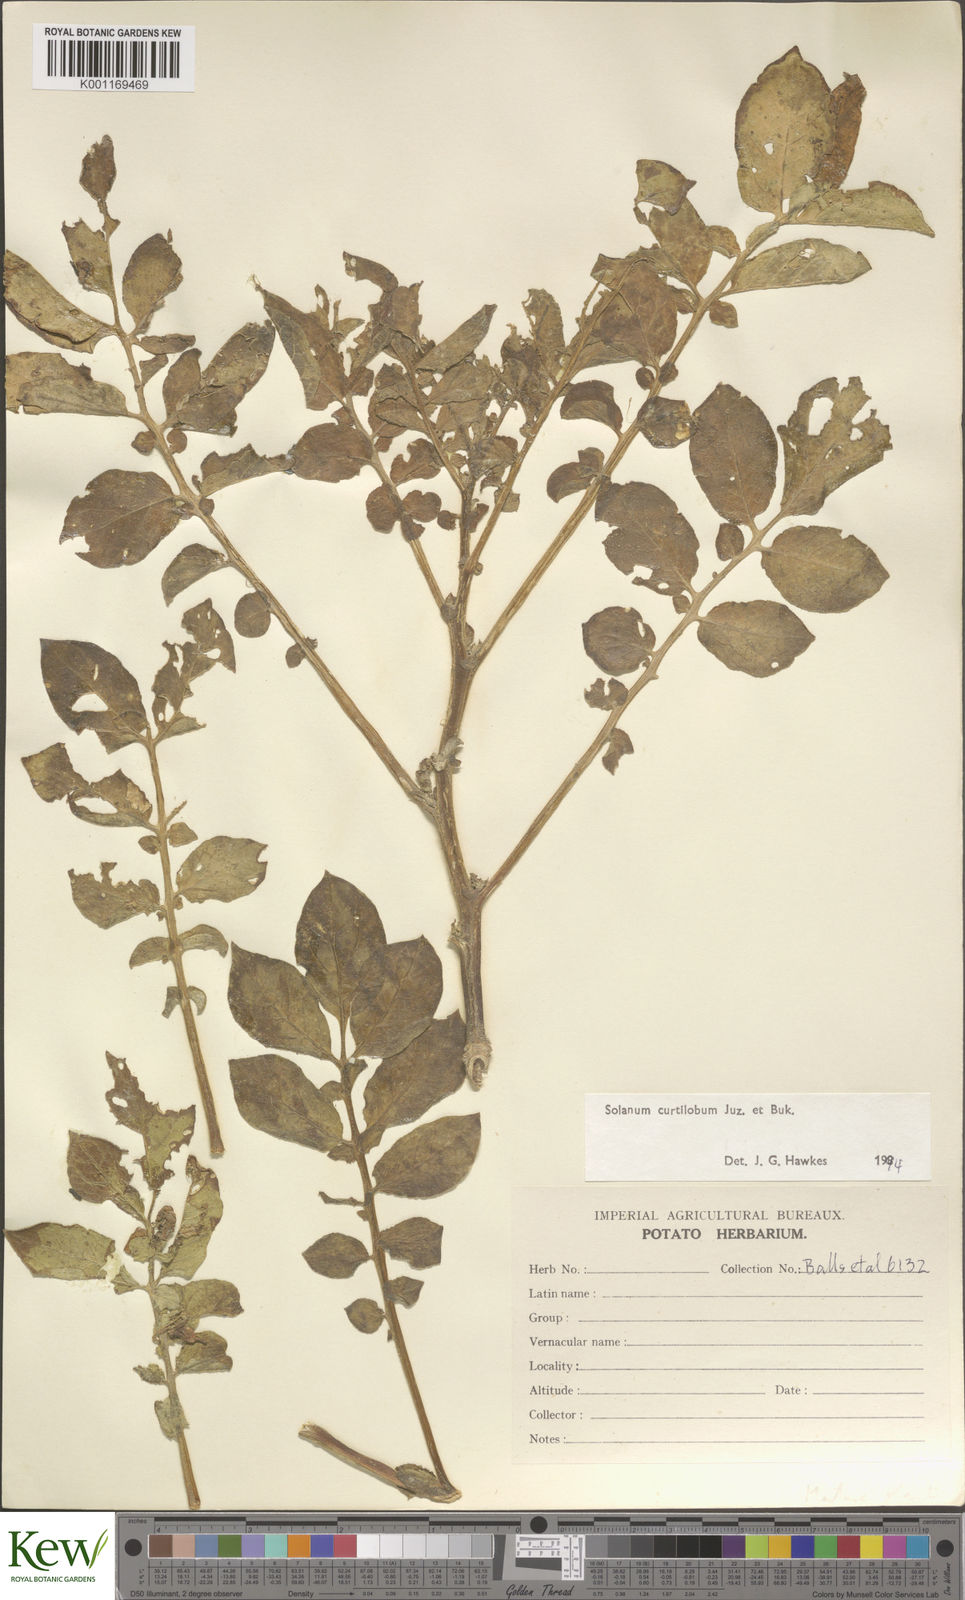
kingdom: Plantae
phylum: Tracheophyta
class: Magnoliopsida
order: Solanales
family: Solanaceae
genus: Solanum
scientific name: Solanum curtilobum
